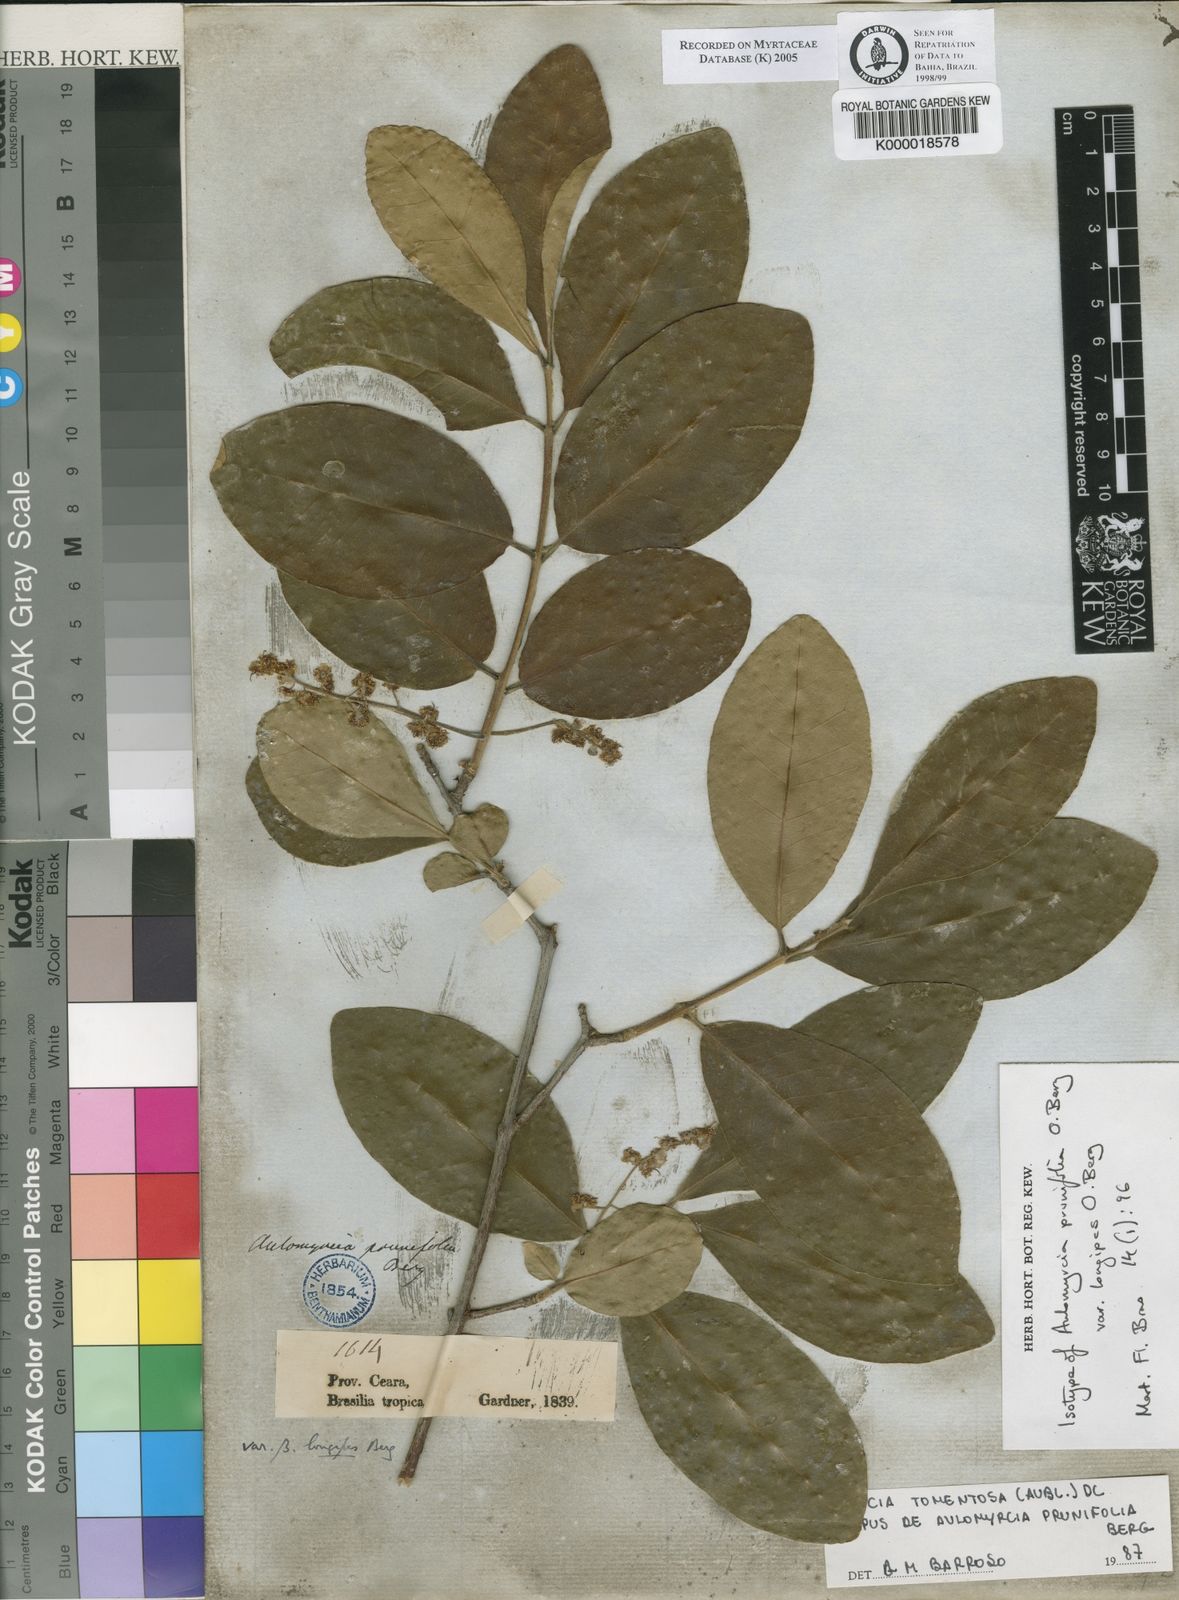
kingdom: Plantae
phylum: Tracheophyta
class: Magnoliopsida
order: Myrtales
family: Myrtaceae
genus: Myrcia
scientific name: Myrcia tomentosa
